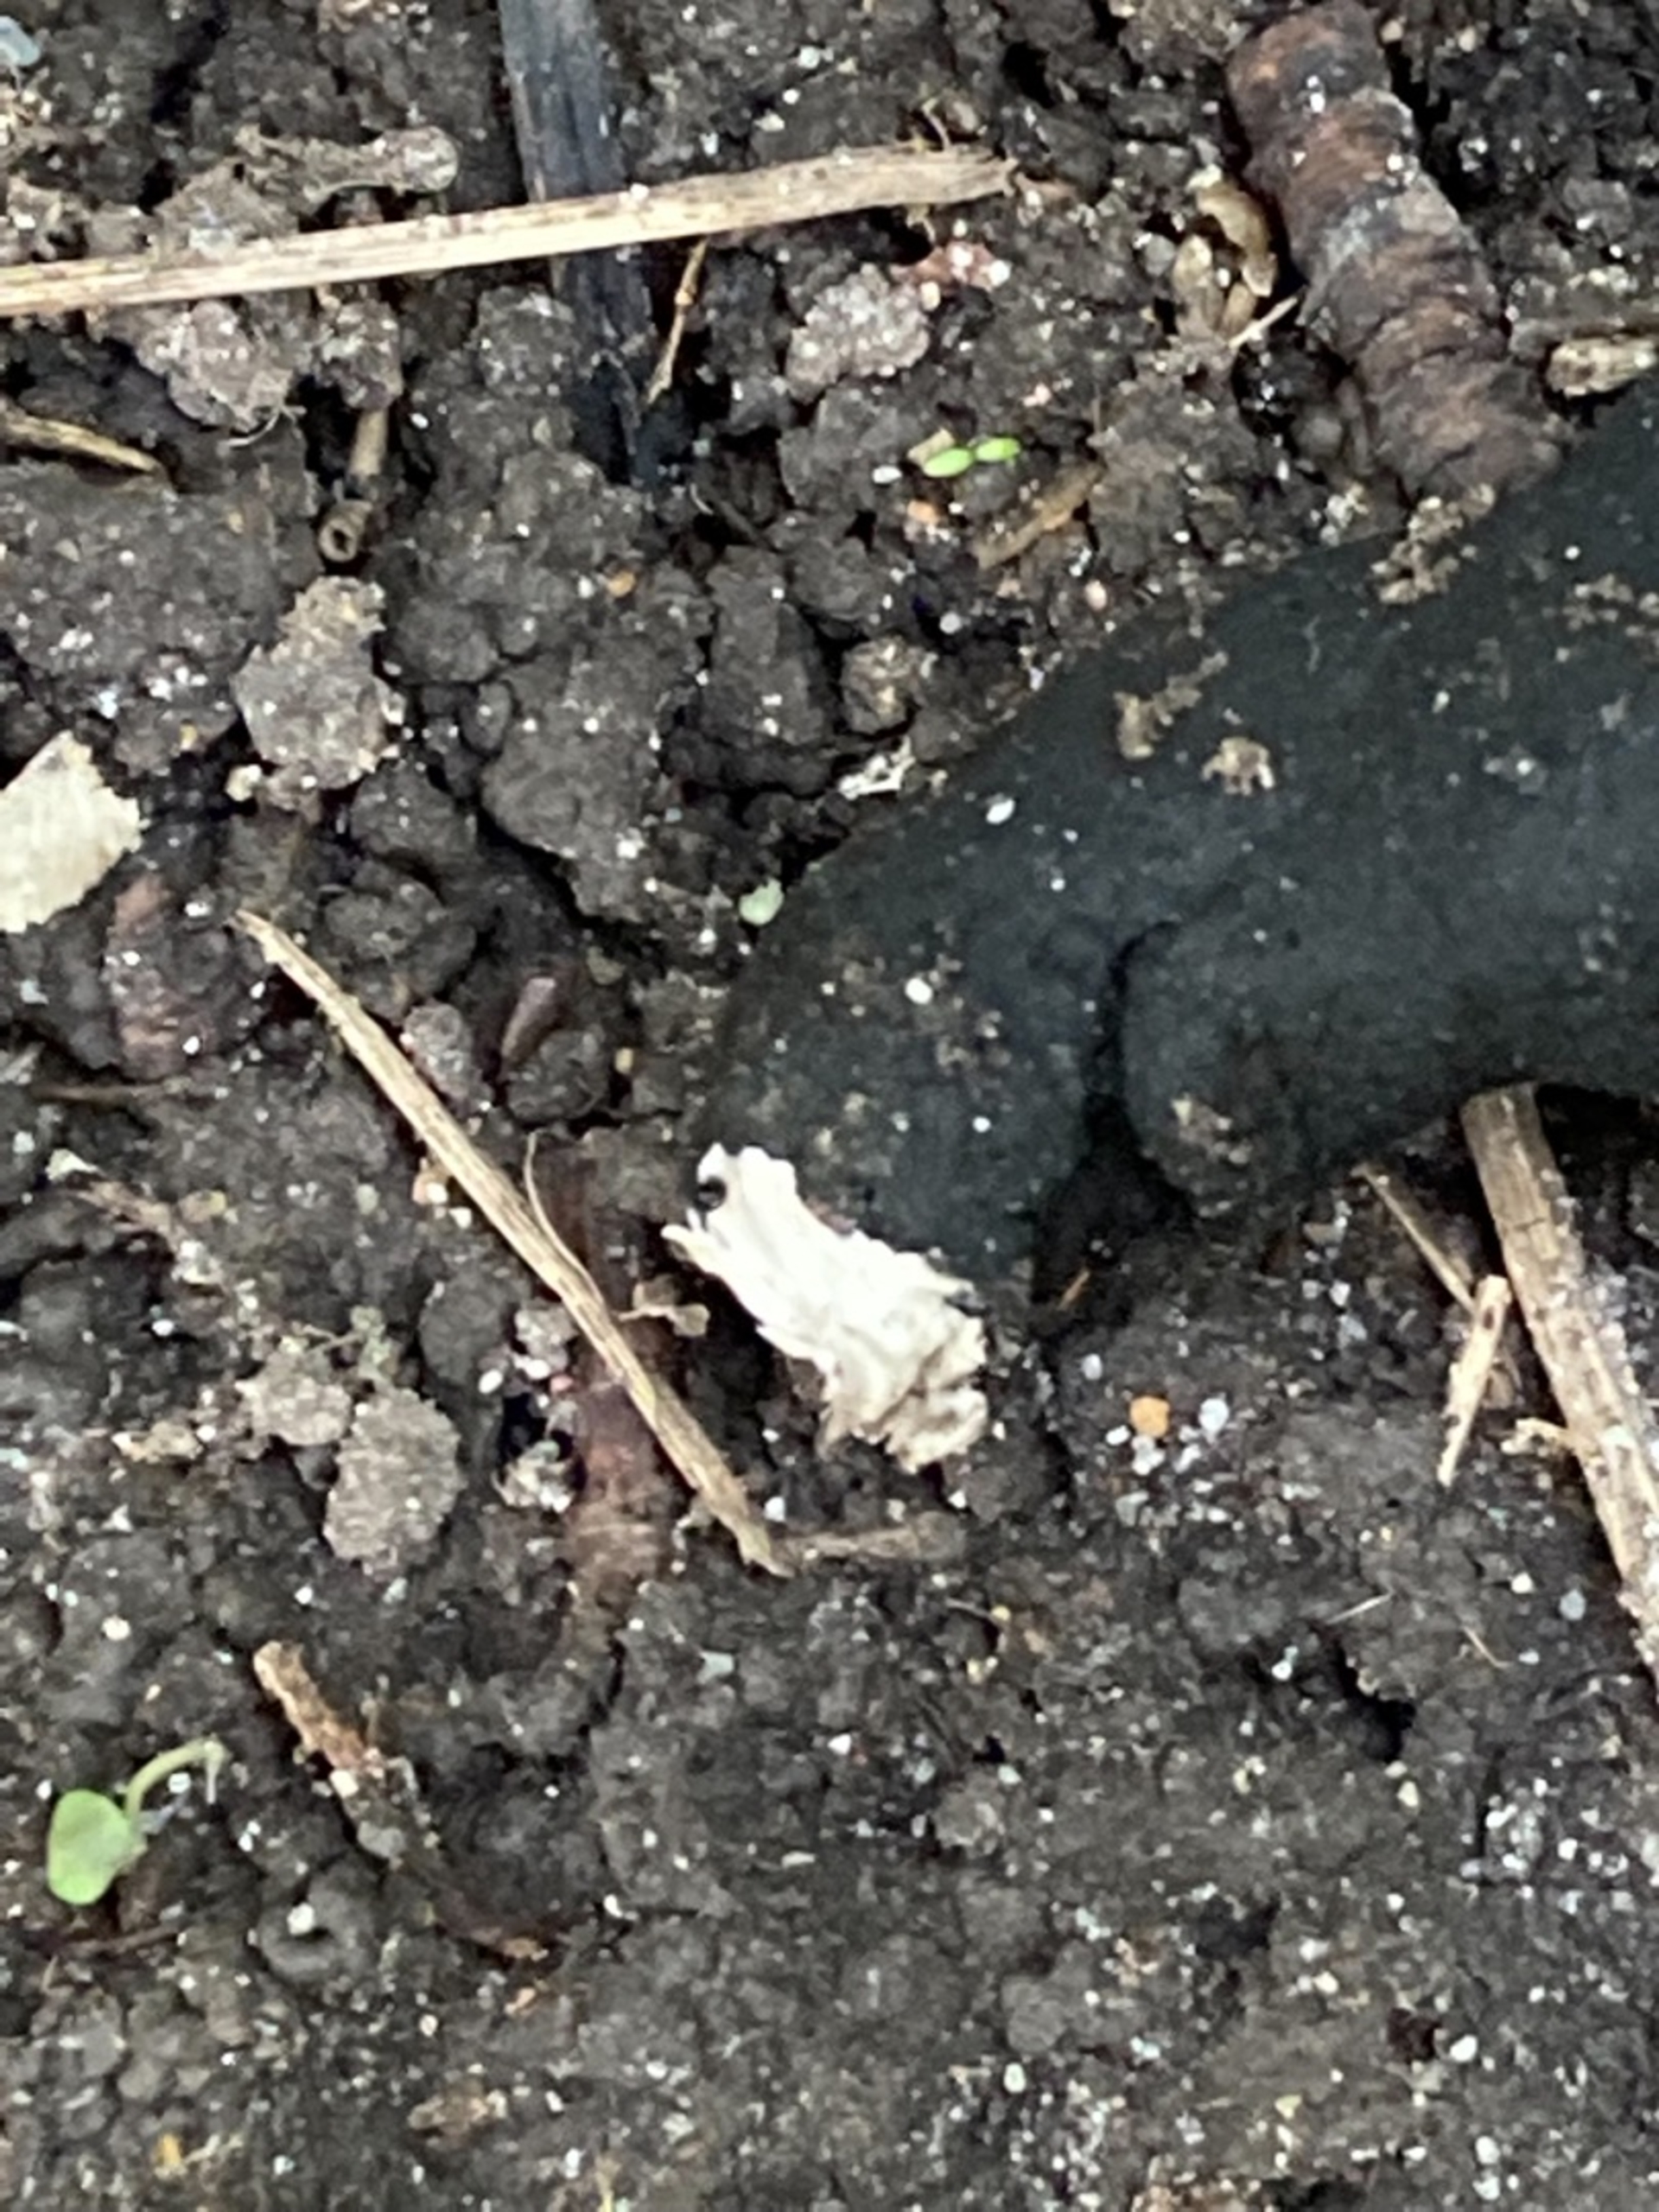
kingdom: Fungi
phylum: Ascomycota
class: Sordariomycetes
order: Xylariales
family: Xylariaceae
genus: Xylaria
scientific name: Xylaria polymorpha
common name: Kølle-stødsvamp
